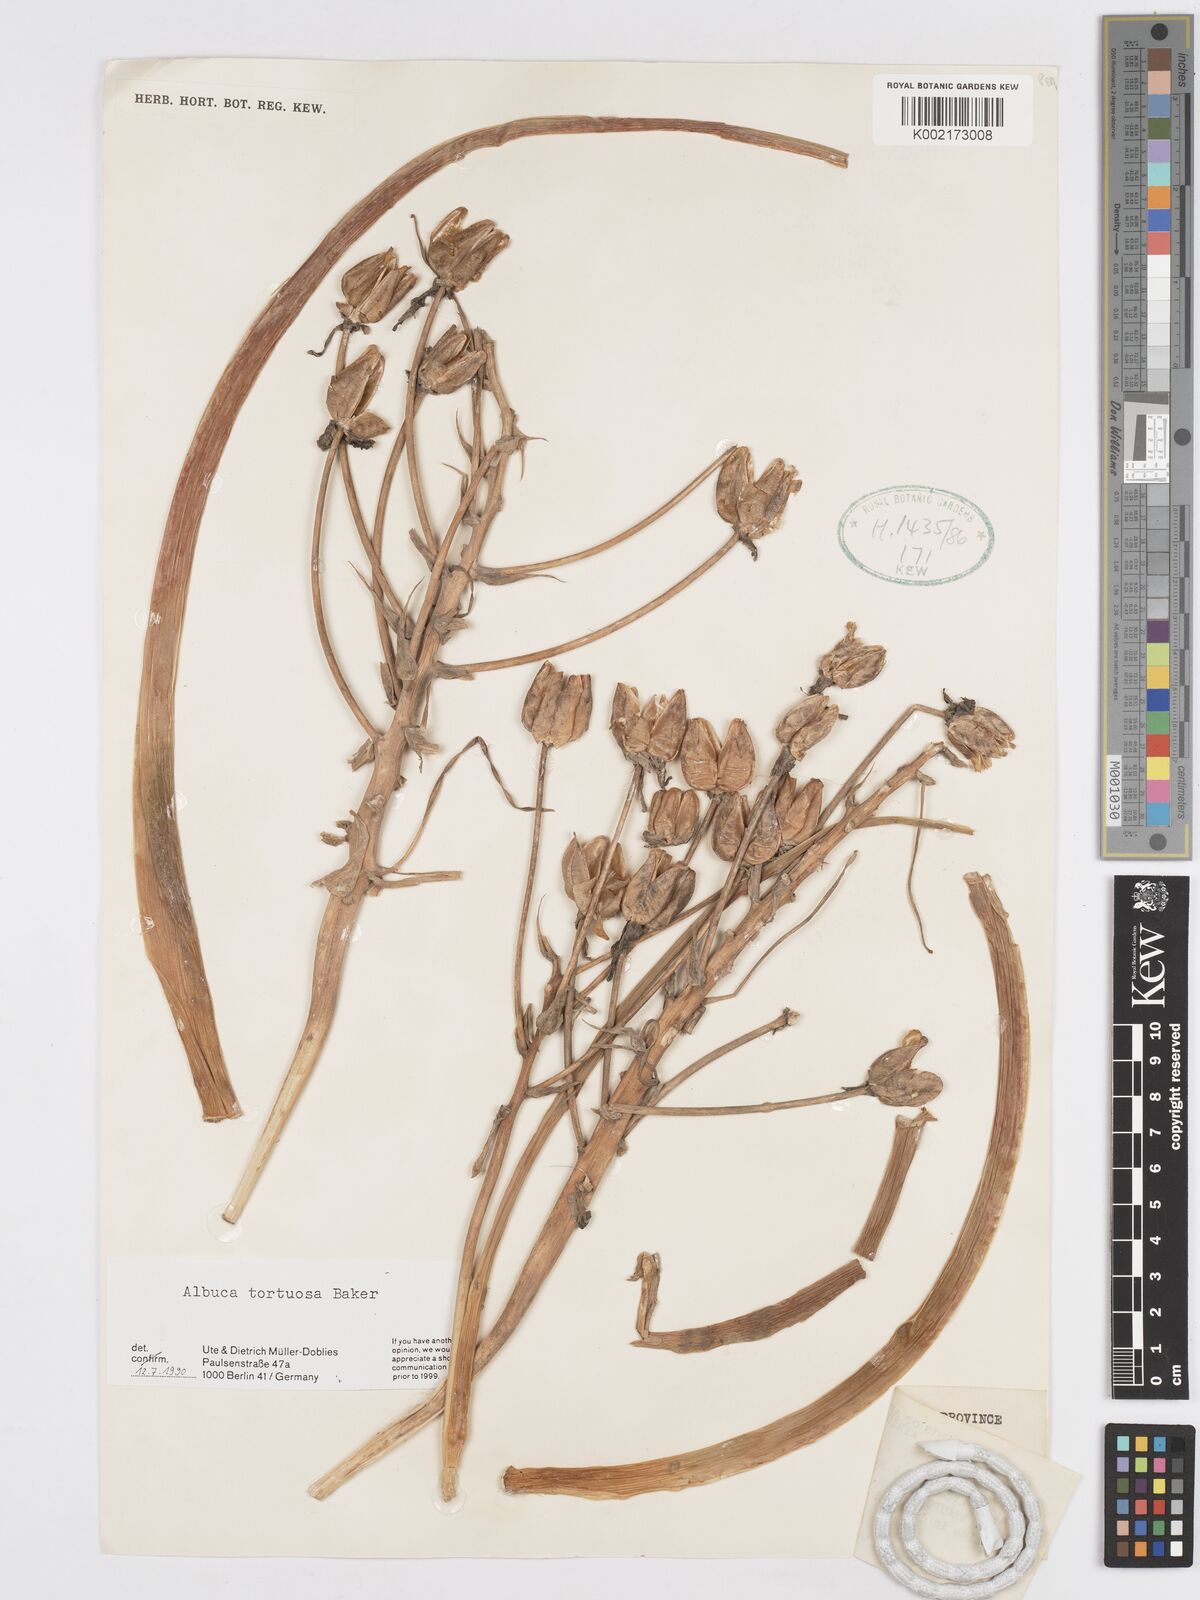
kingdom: Plantae
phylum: Tracheophyta
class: Liliopsida
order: Asparagales
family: Asparagaceae
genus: Albuca
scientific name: Albuca tortuosa
